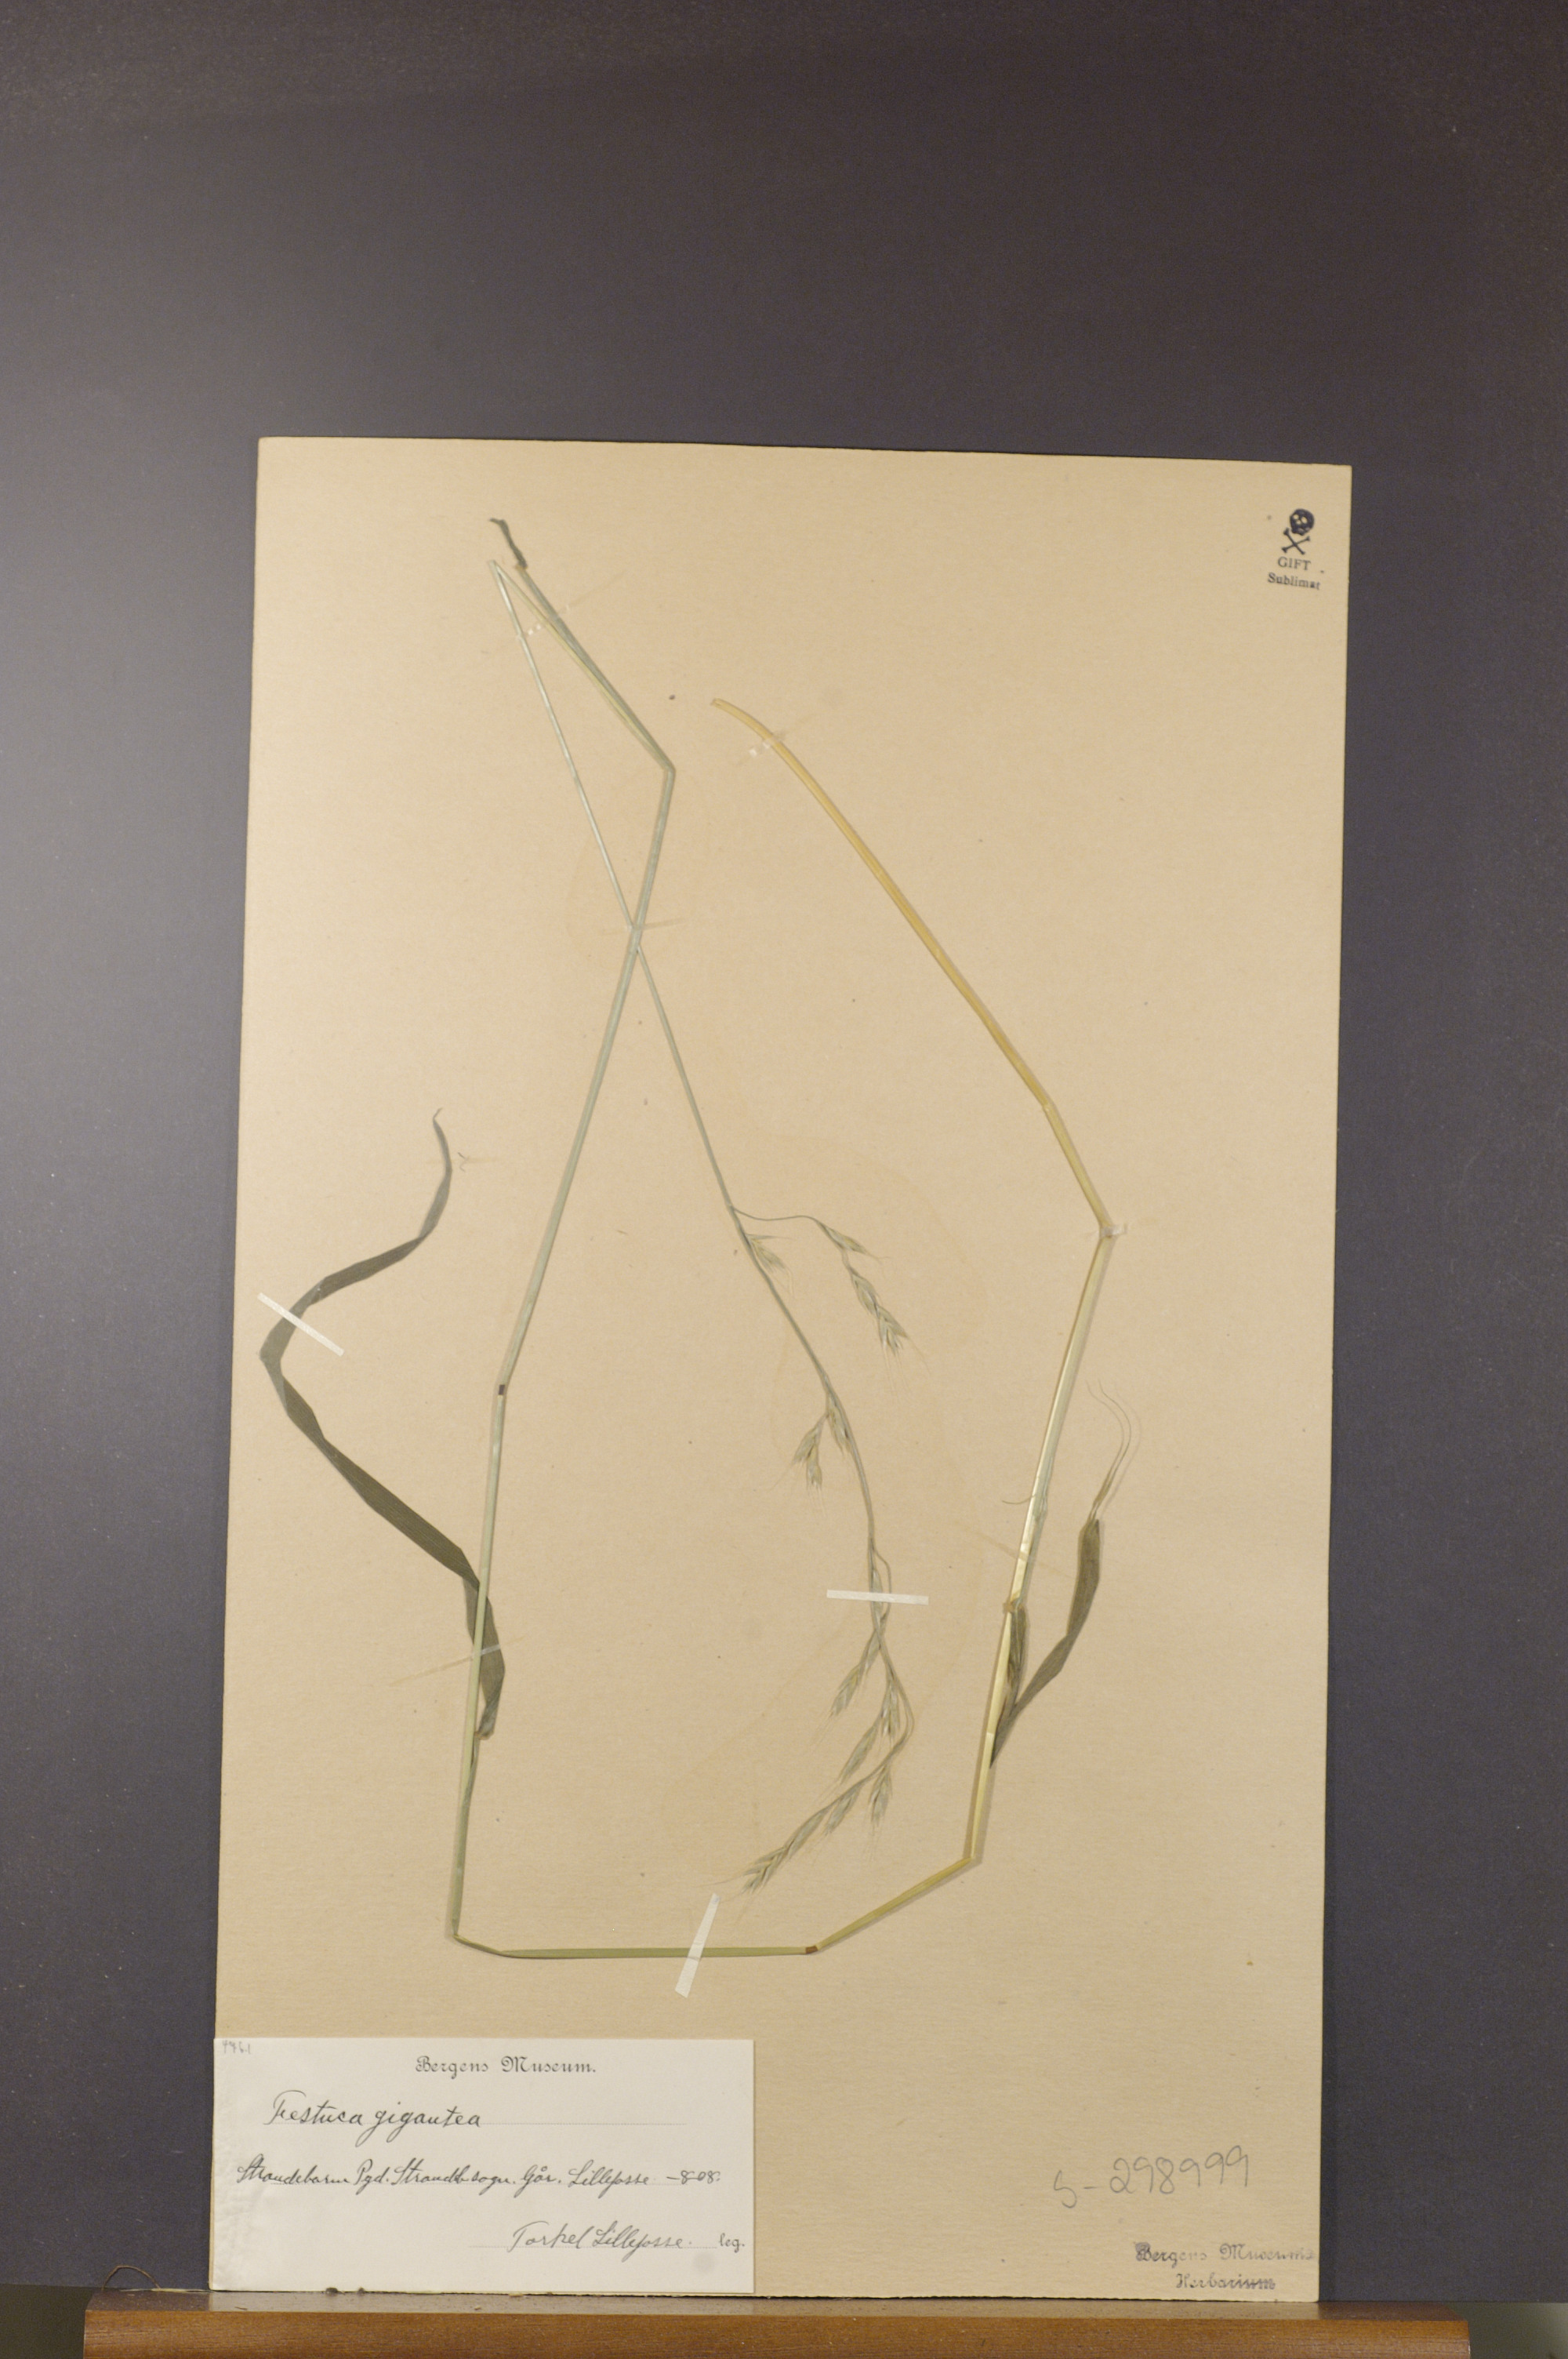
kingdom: Plantae
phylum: Tracheophyta
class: Liliopsida
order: Poales
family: Poaceae
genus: Lolium
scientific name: Lolium giganteum
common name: Giant fescue
